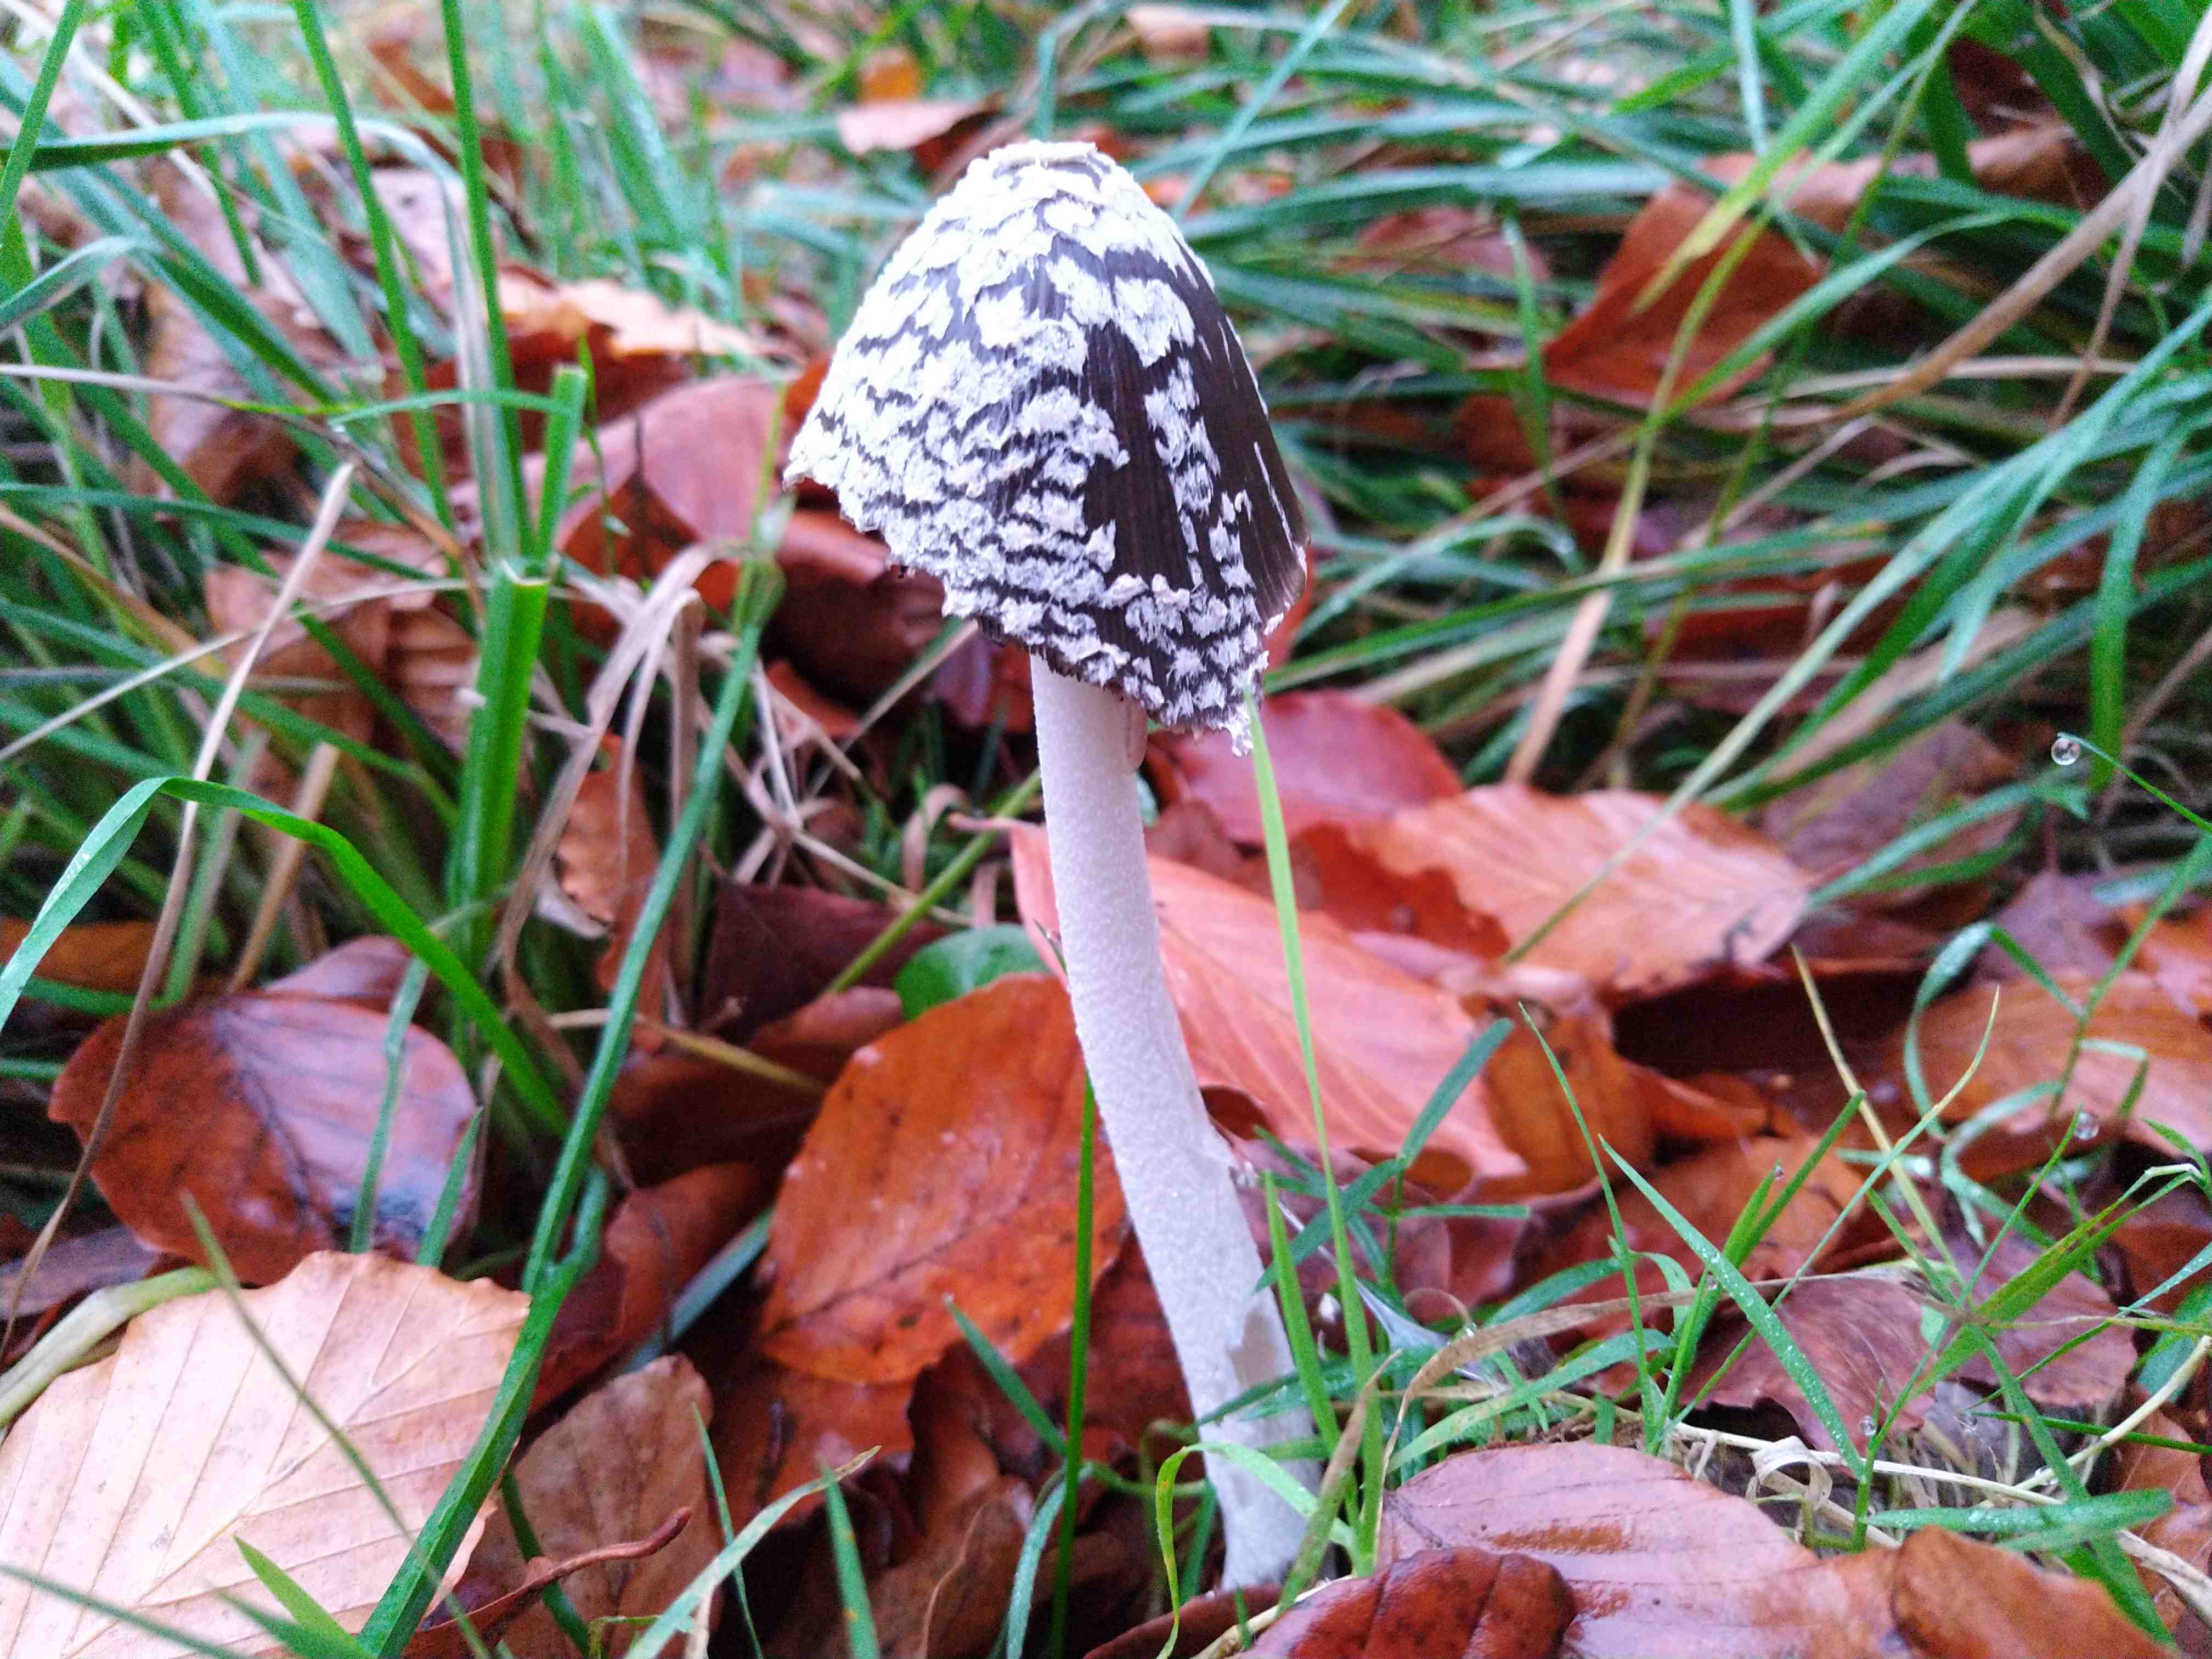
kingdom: Fungi
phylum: Basidiomycota
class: Agaricomycetes
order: Agaricales
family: Psathyrellaceae
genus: Coprinopsis
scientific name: Coprinopsis picacea
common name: skade-blækhat
